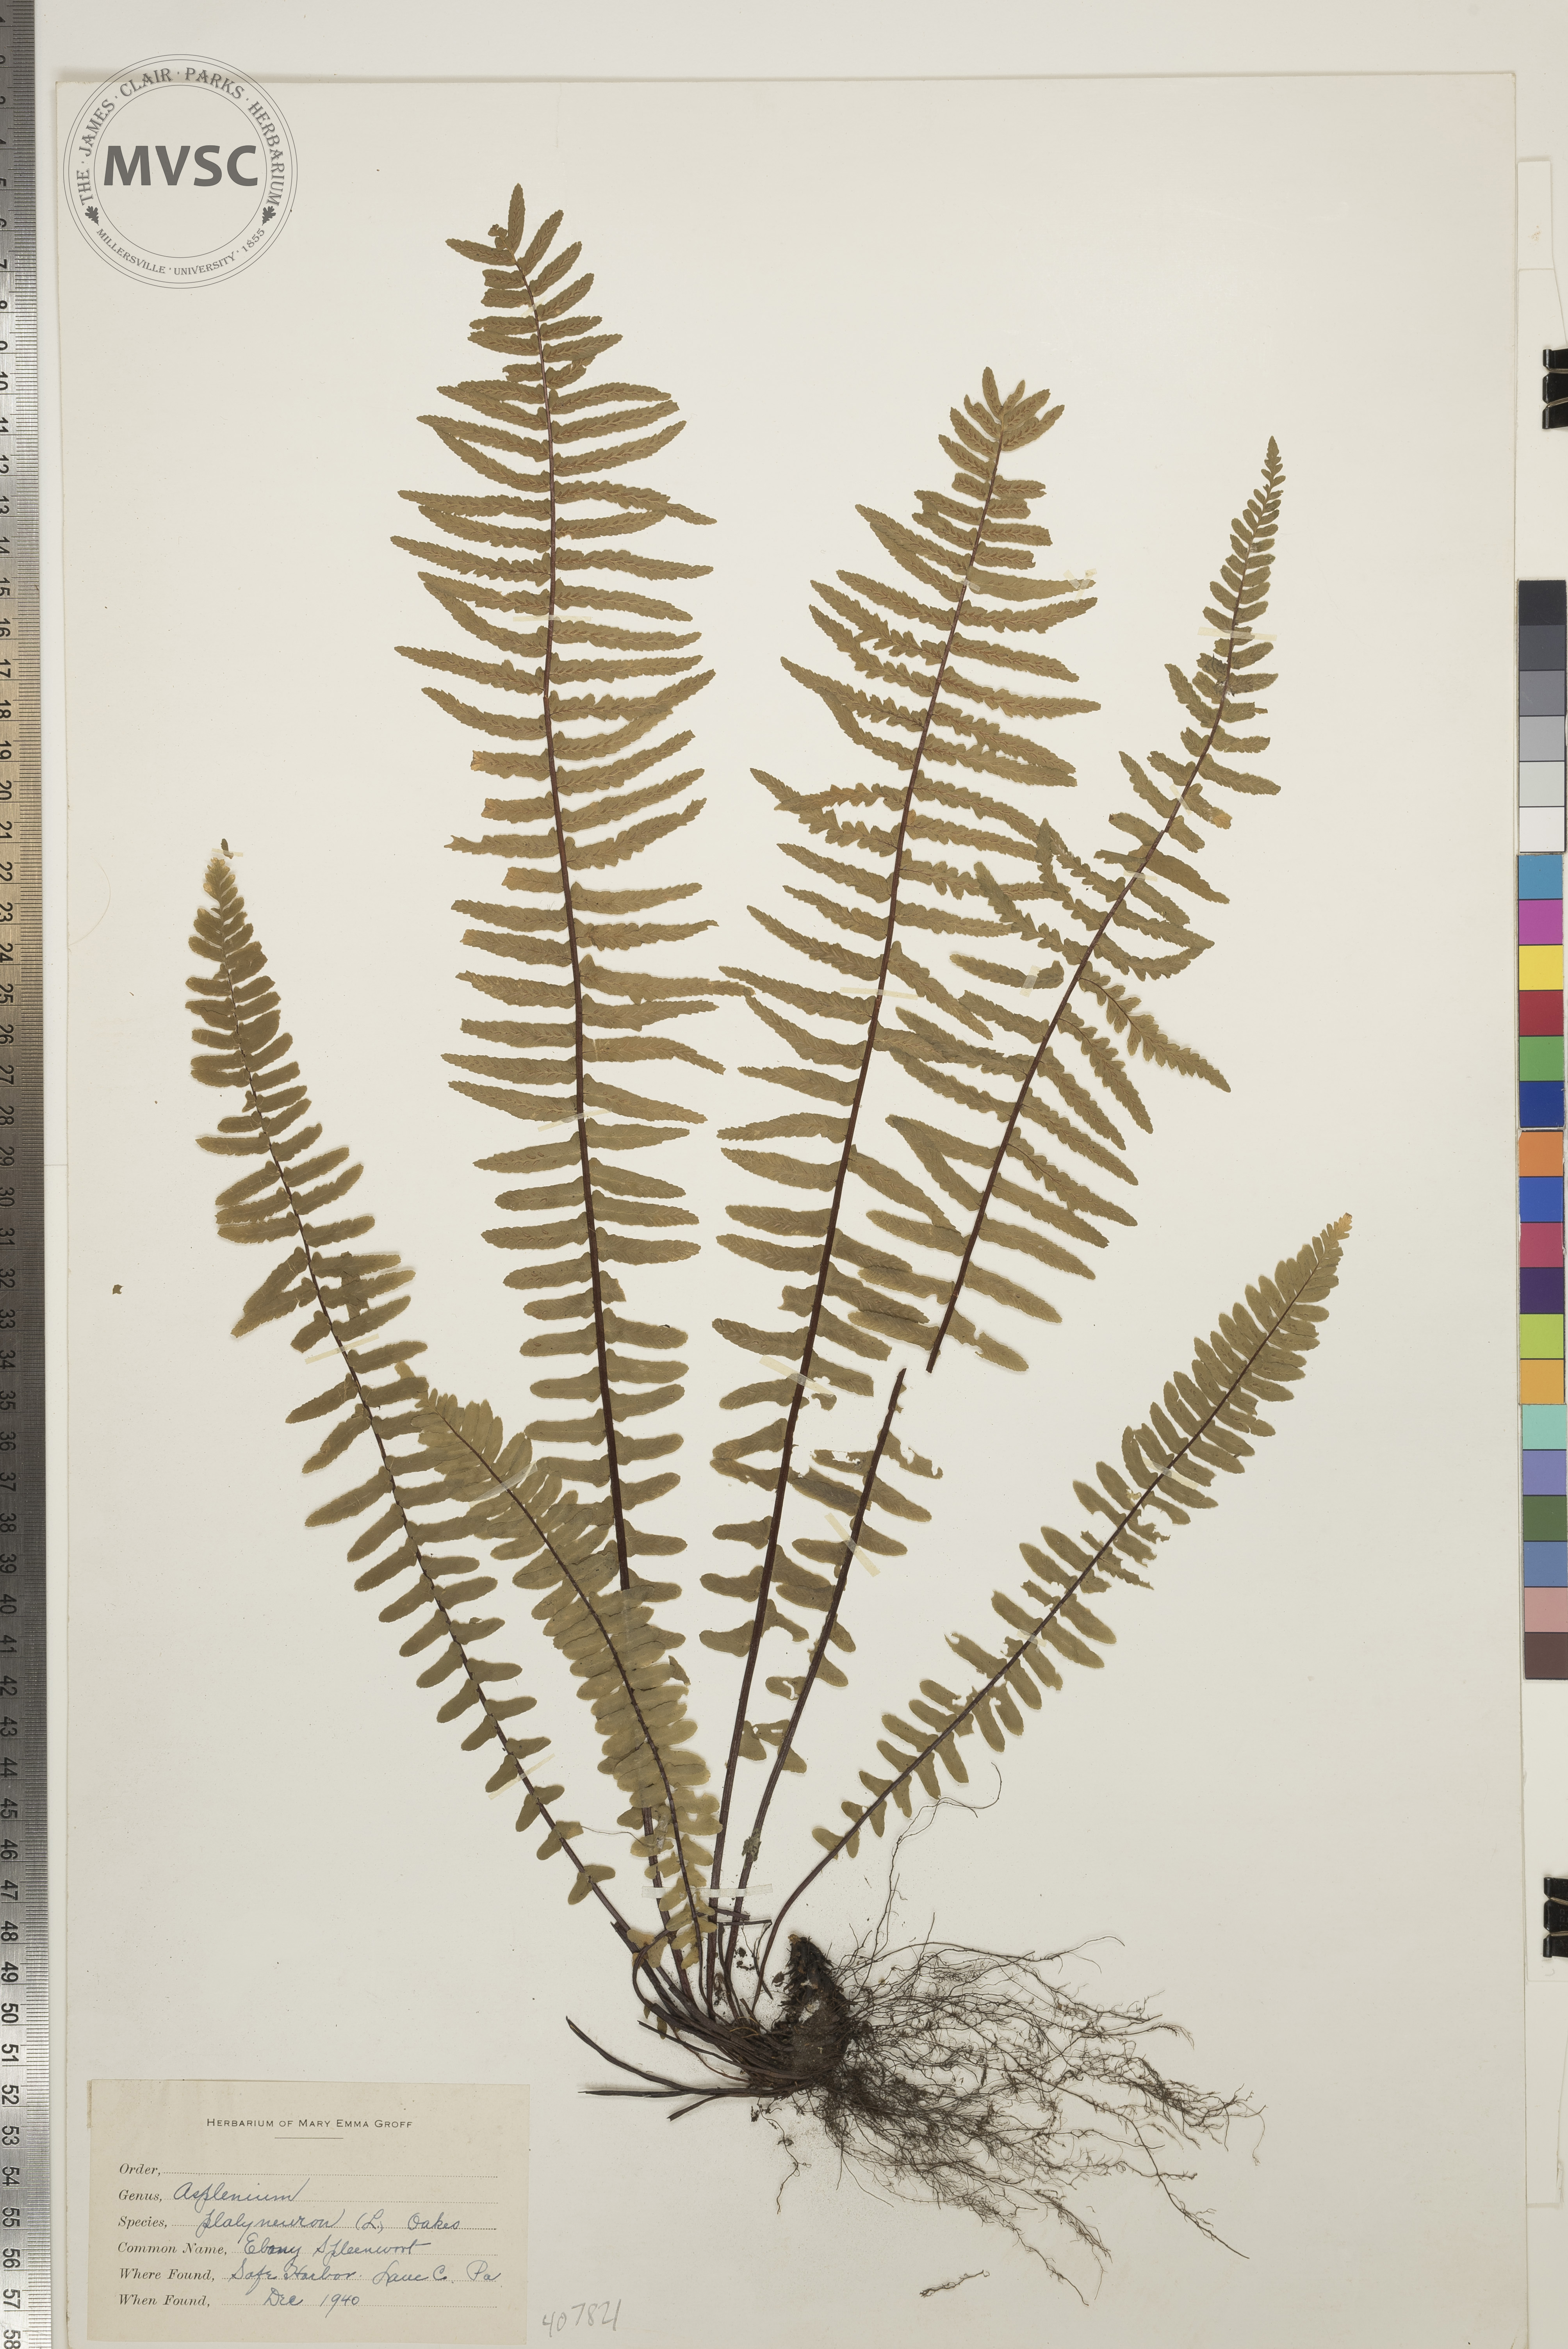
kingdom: Plantae
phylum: Tracheophyta
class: Polypodiopsida
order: Polypodiales
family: Aspleniaceae
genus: Asplenium
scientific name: Asplenium platyneuron
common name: Ebony Spleenwort
